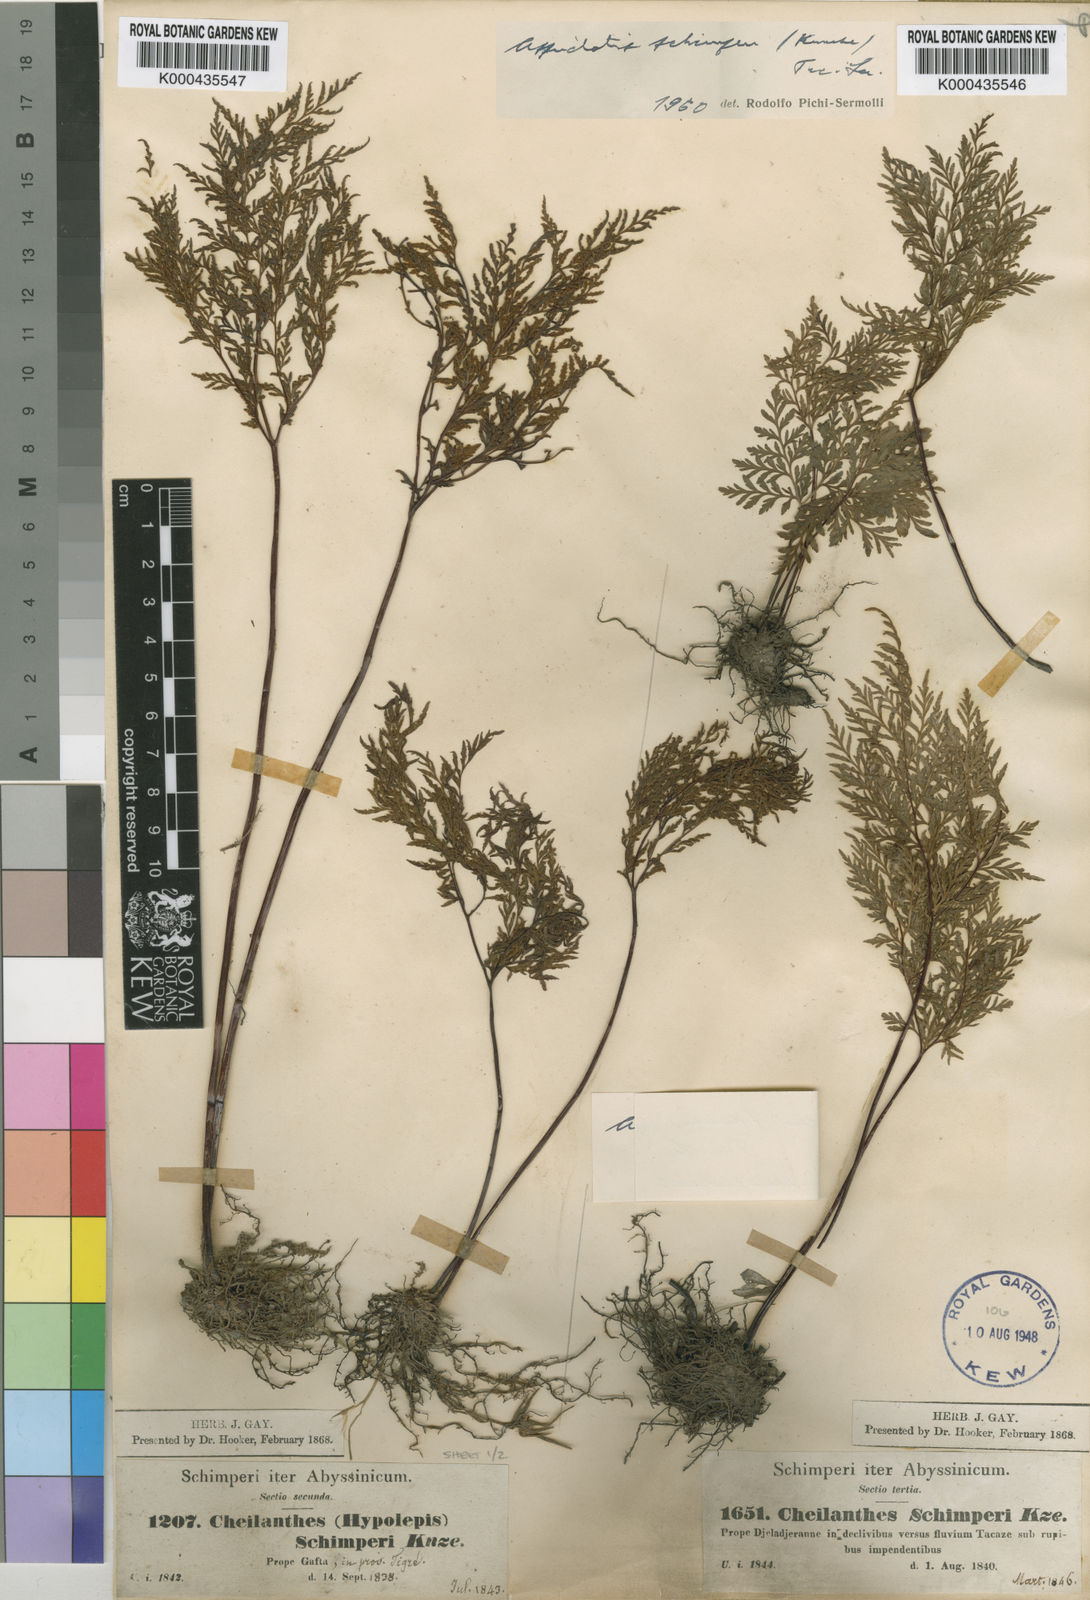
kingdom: Plantae
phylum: Tracheophyta
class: Polypodiopsida
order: Polypodiales
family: Pteridaceae
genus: Cheilanthes
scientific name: Cheilanthes schimperi
